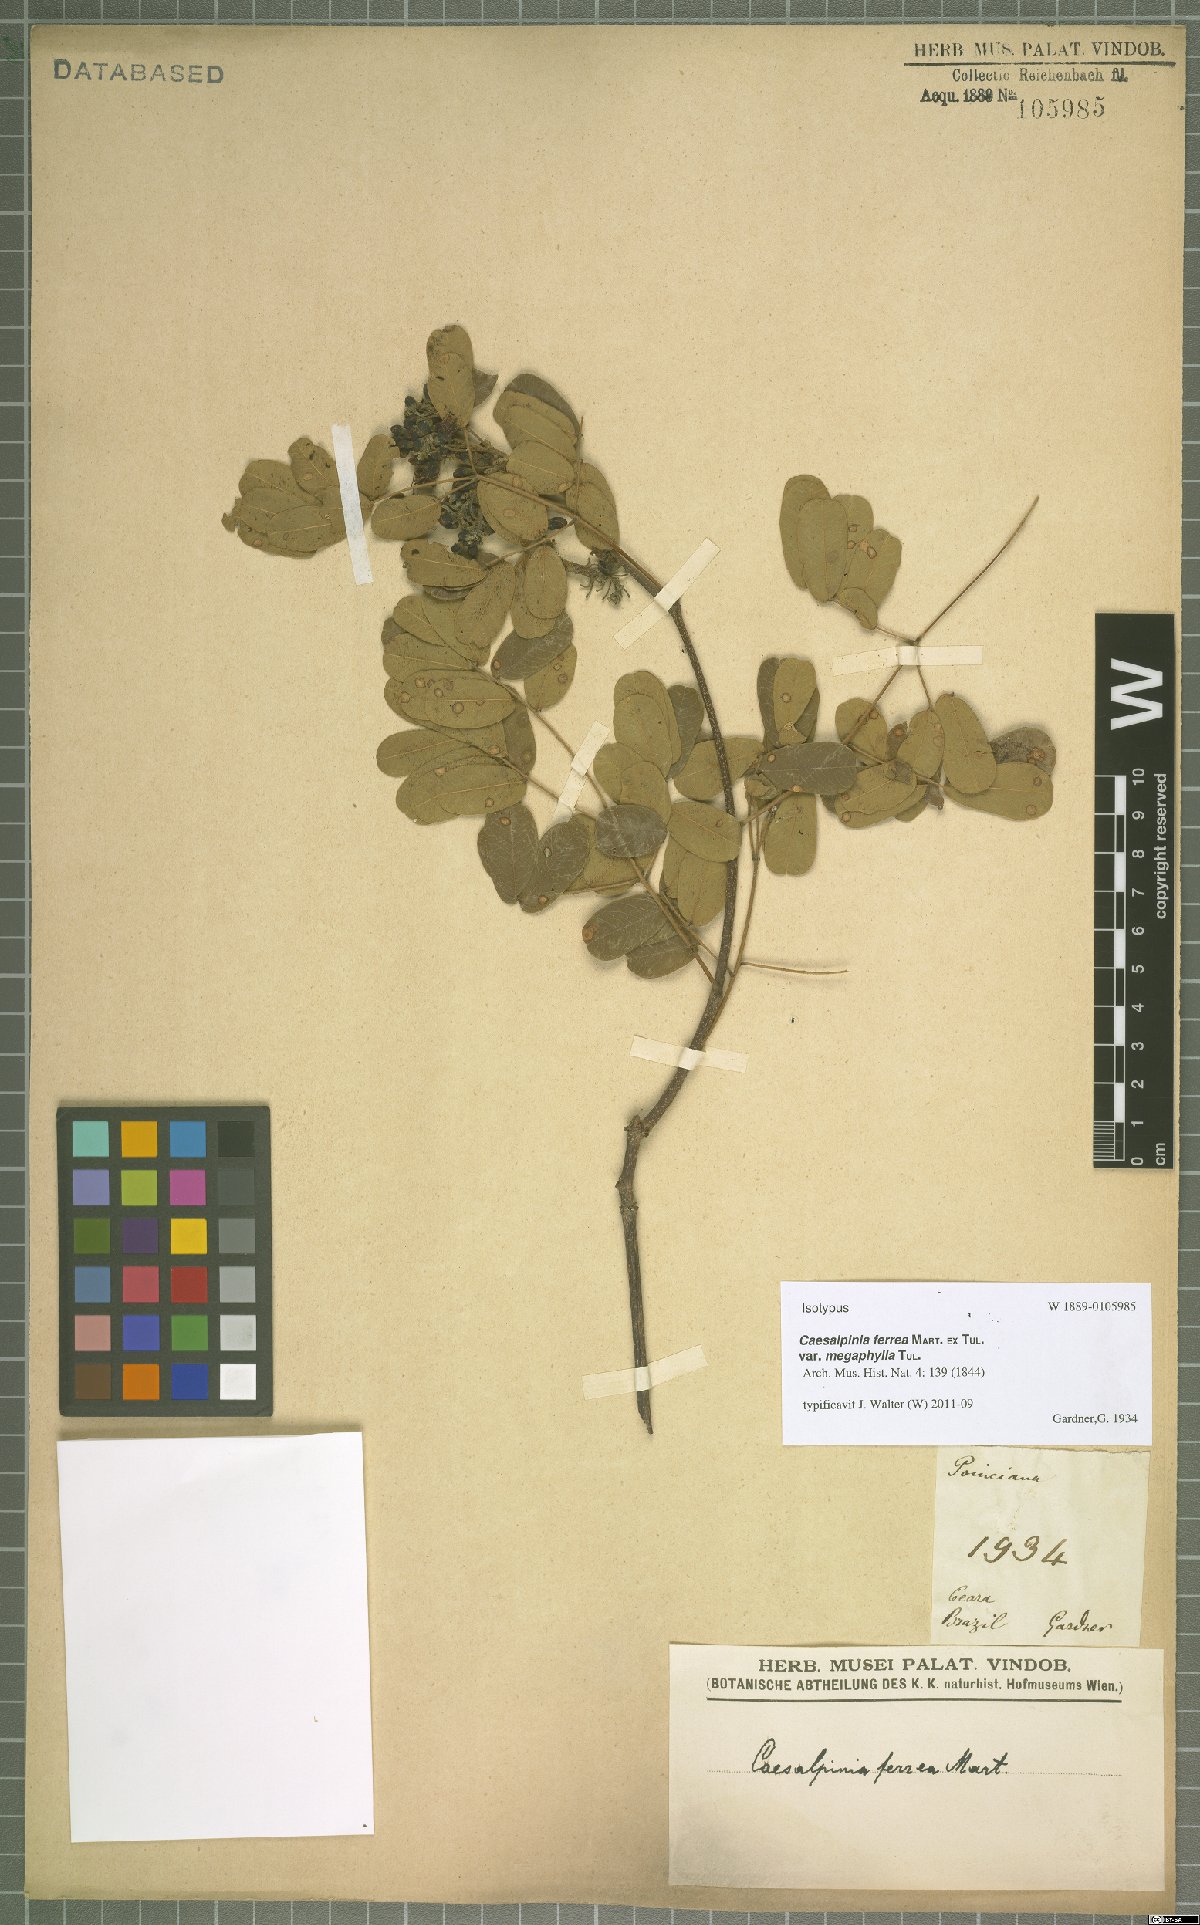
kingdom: Plantae
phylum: Tracheophyta
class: Magnoliopsida
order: Fabales
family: Fabaceae
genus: Libidibia
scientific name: Libidibia ferrea
